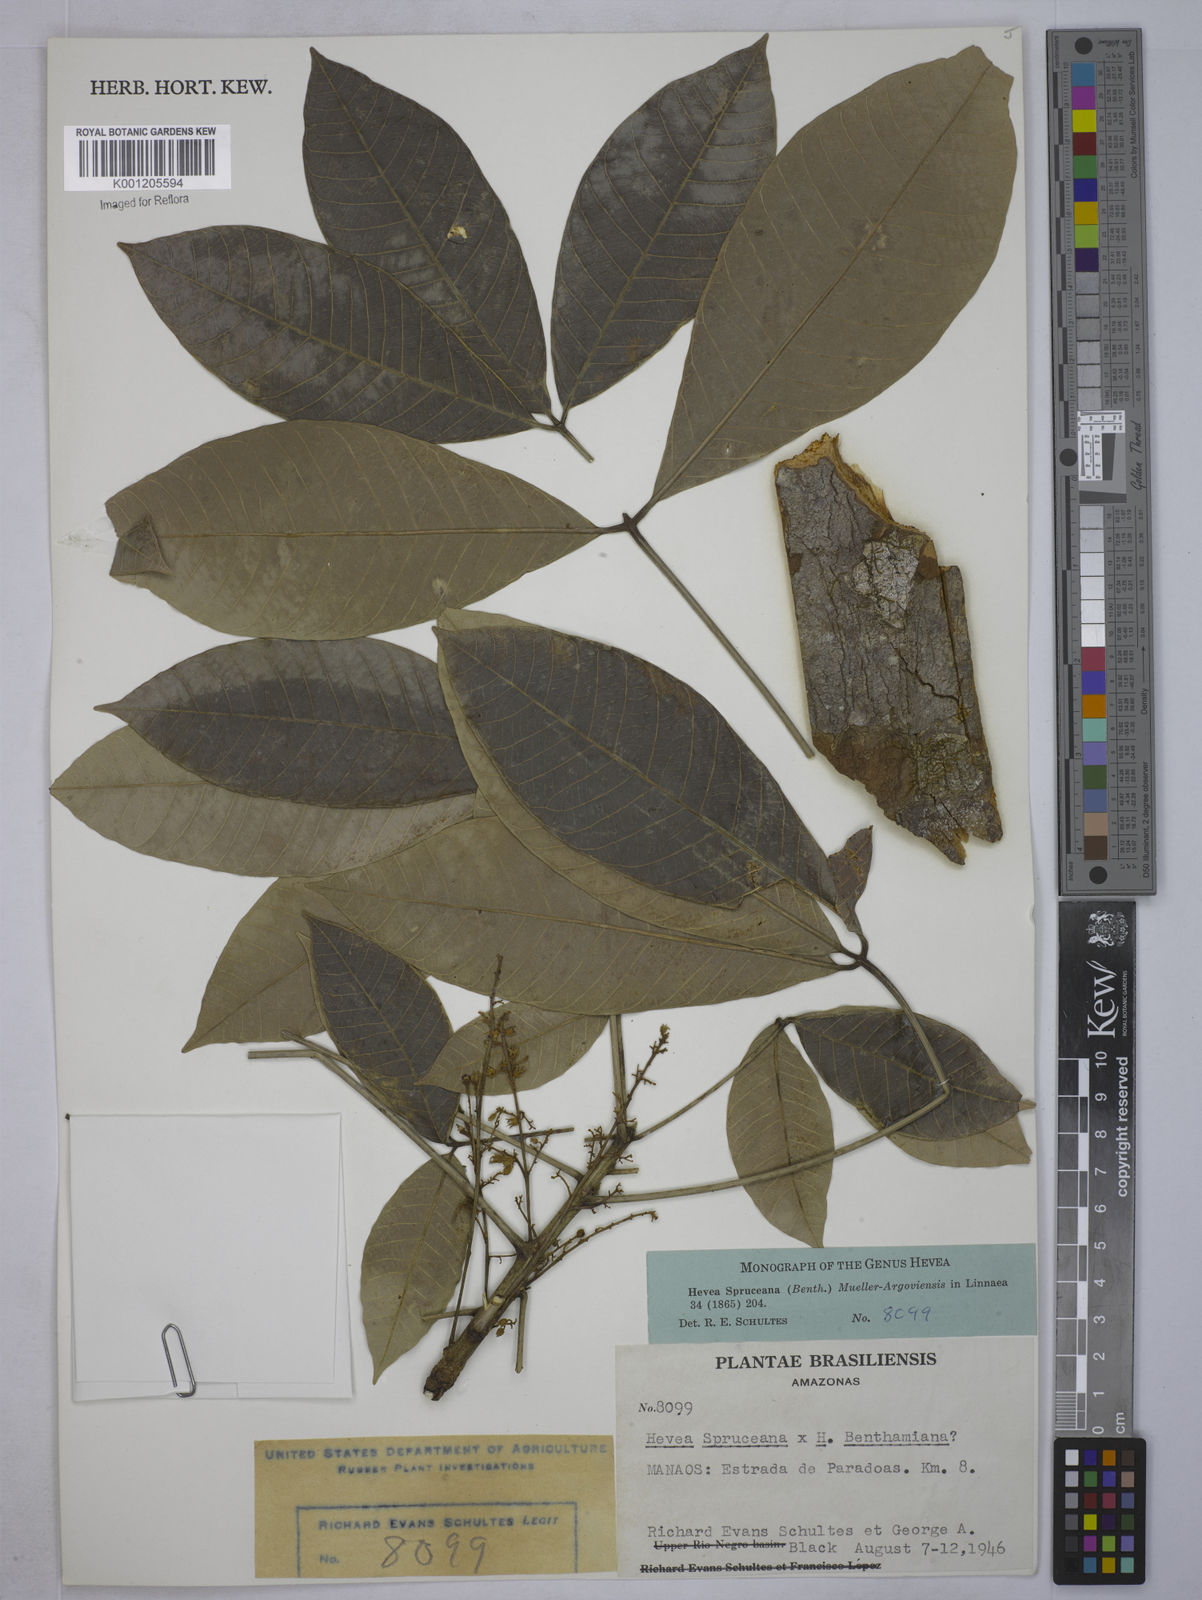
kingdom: Plantae
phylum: Tracheophyta
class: Magnoliopsida
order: Malpighiales
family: Euphorbiaceae
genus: Hevea
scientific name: Hevea
